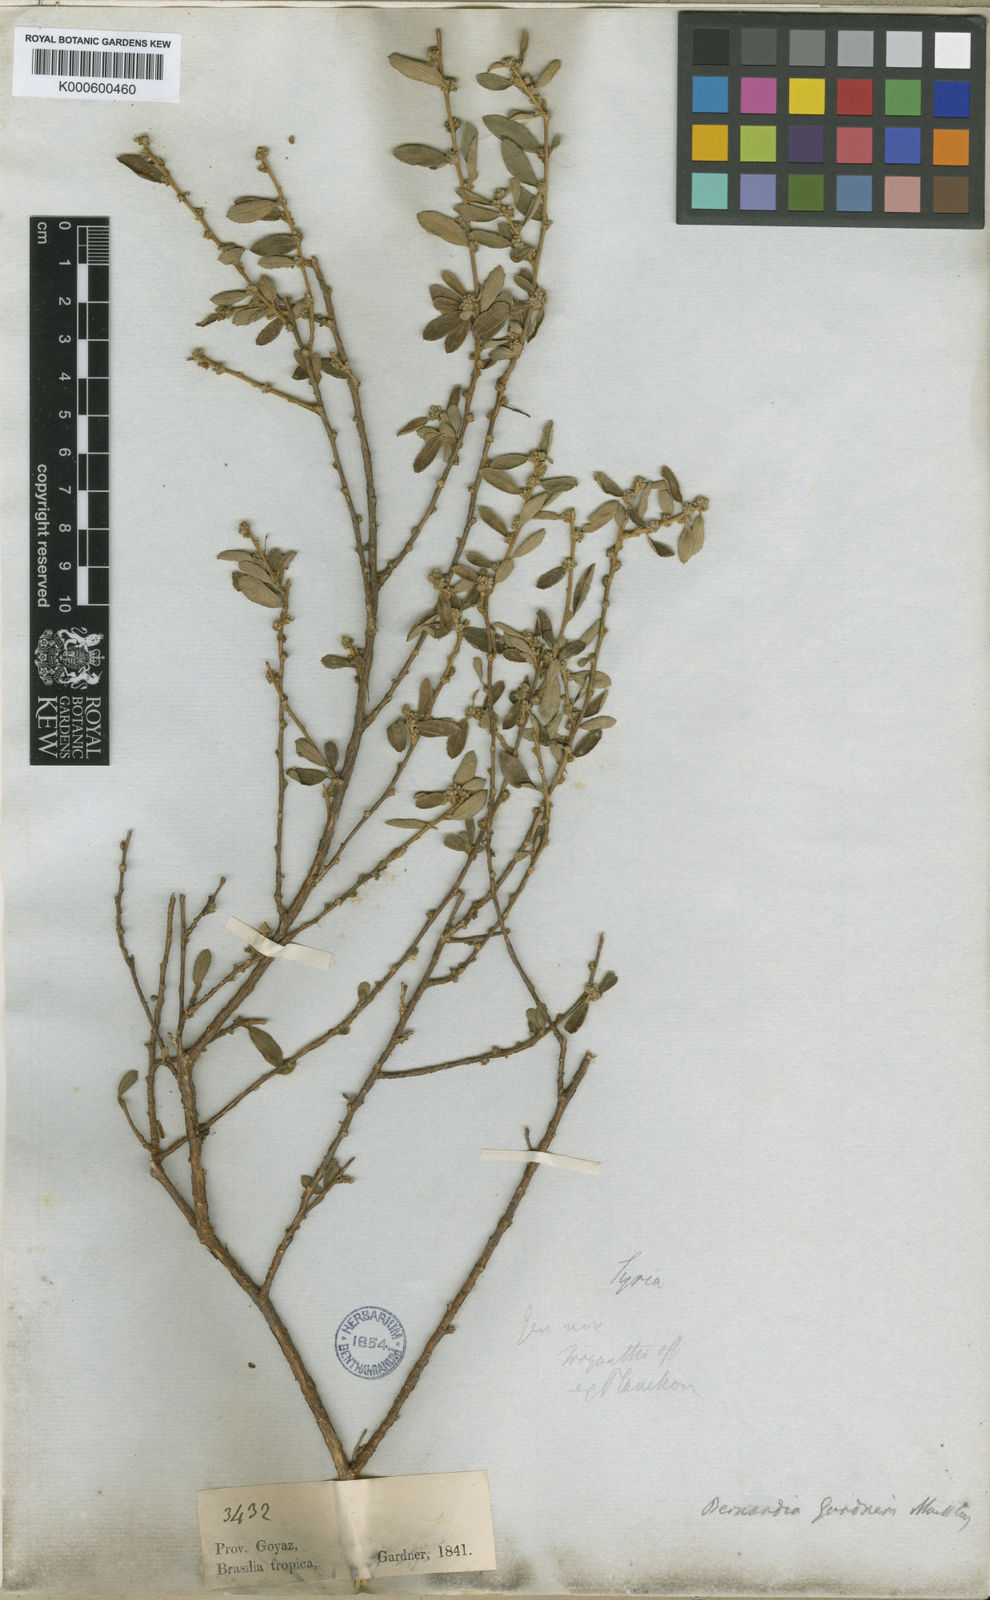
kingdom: Plantae
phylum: Tracheophyta
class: Magnoliopsida
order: Malpighiales
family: Euphorbiaceae
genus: Bernardia
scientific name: Bernardia
